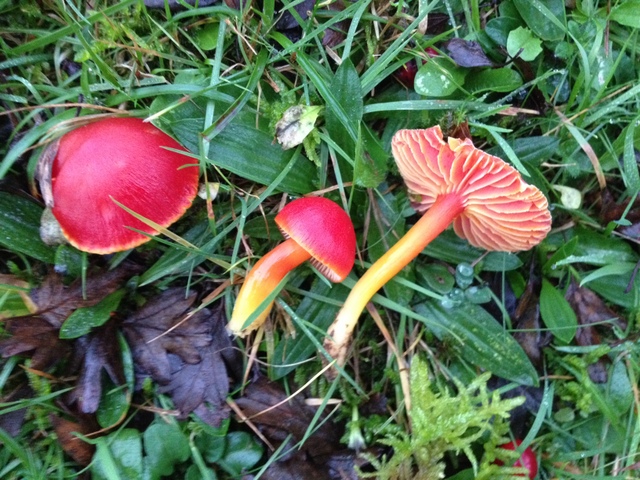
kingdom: Fungi
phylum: Basidiomycota
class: Agaricomycetes
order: Agaricales
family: Hygrophoraceae
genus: Hygrocybe
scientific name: Hygrocybe coccinea
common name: cinnober-vokshat
